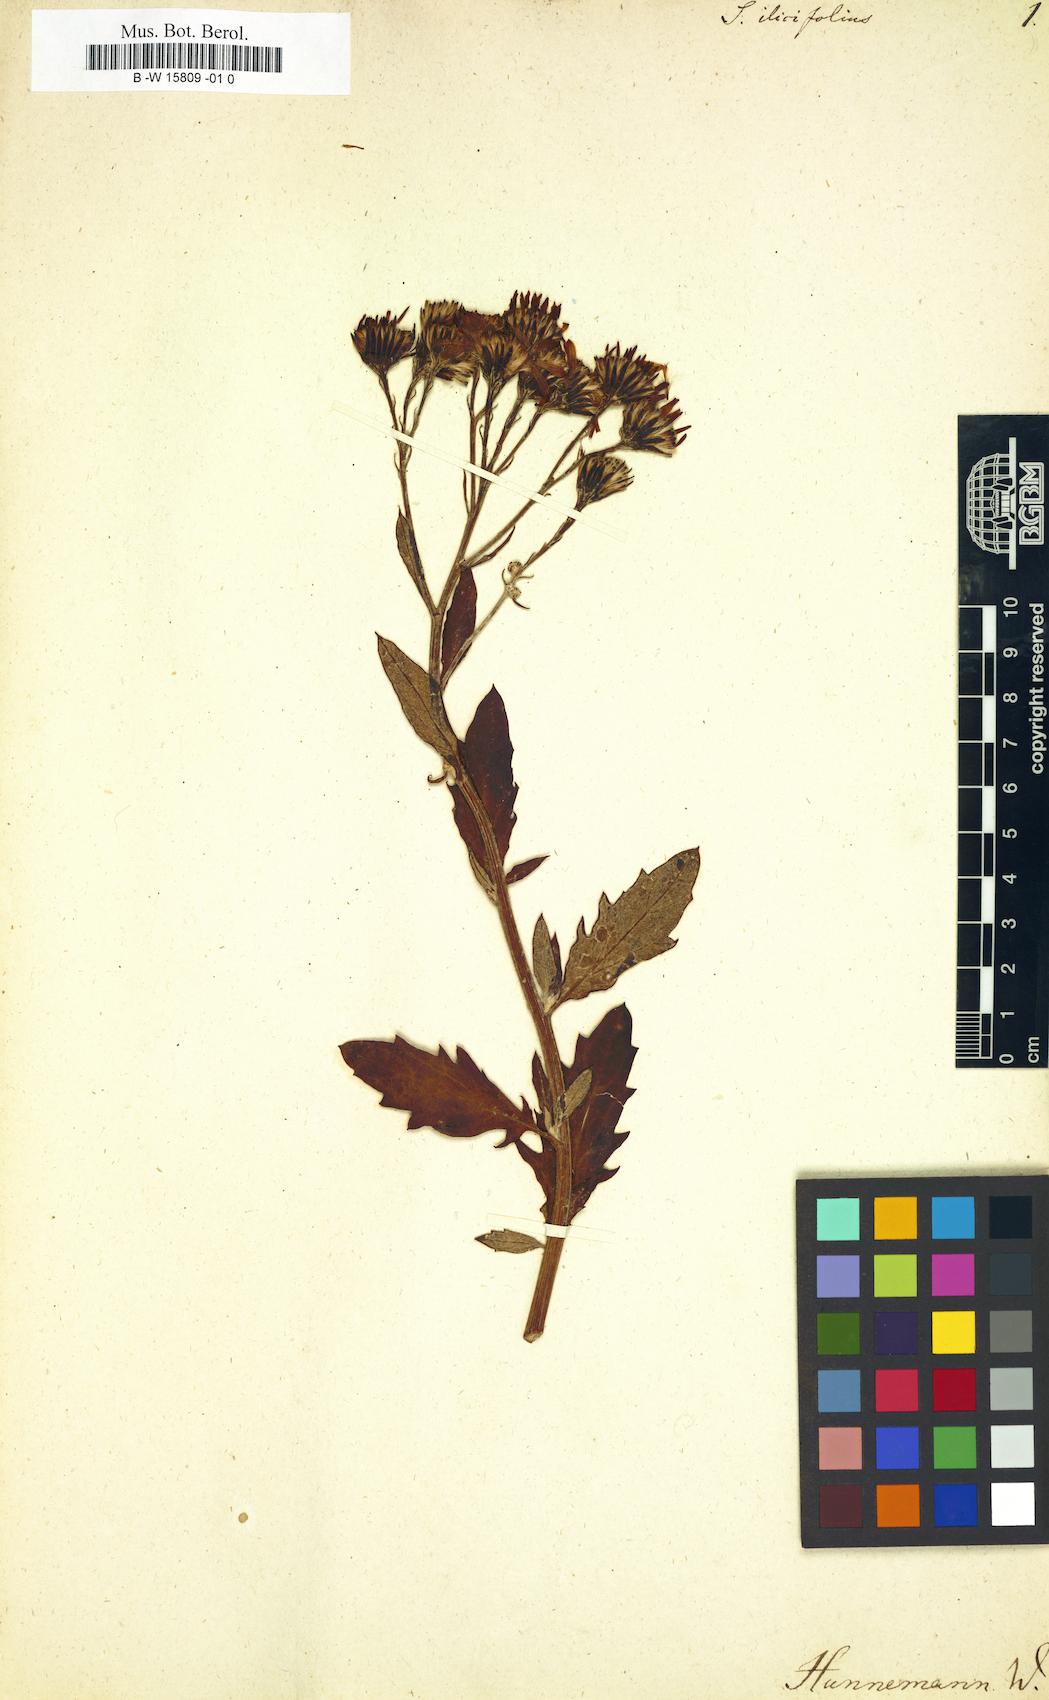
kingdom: Plantae
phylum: Tracheophyta
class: Magnoliopsida
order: Asterales
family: Asteraceae
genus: Senecio
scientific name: Senecio ilicifolius
